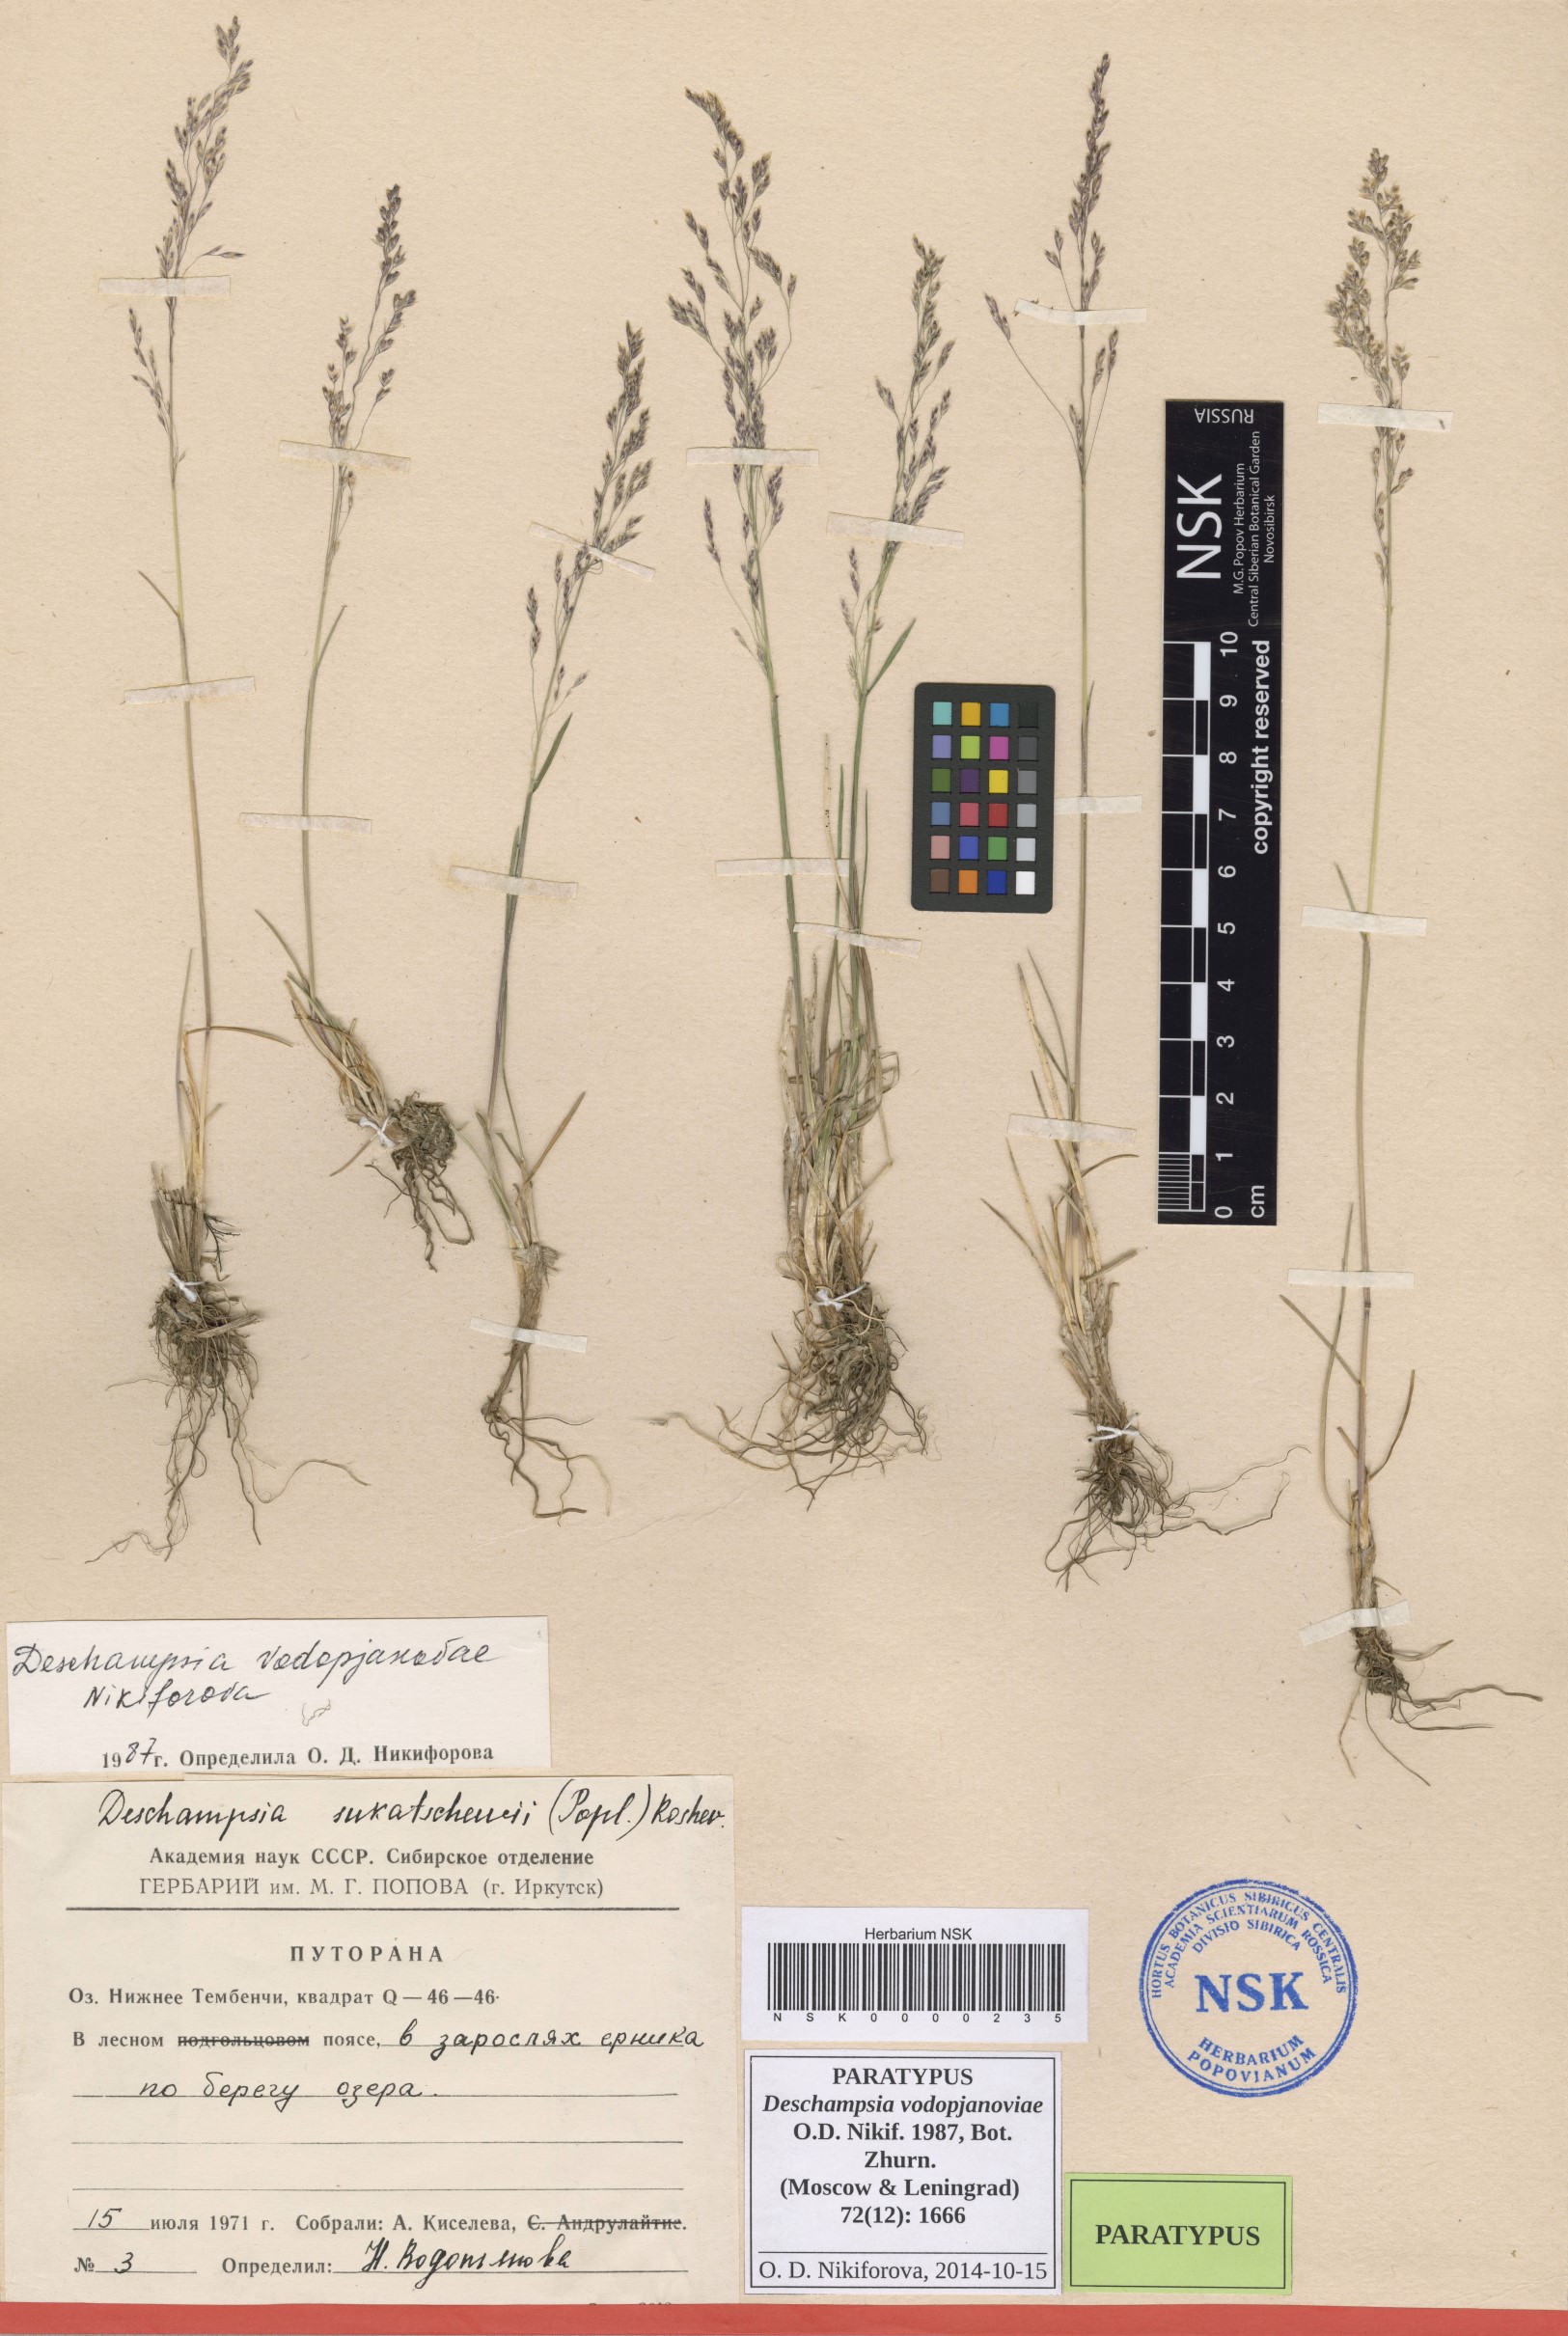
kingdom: Plantae
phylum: Tracheophyta
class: Liliopsida
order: Poales
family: Poaceae
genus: Deschampsia
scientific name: Deschampsia cespitosa
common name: Tufted hair-grass
